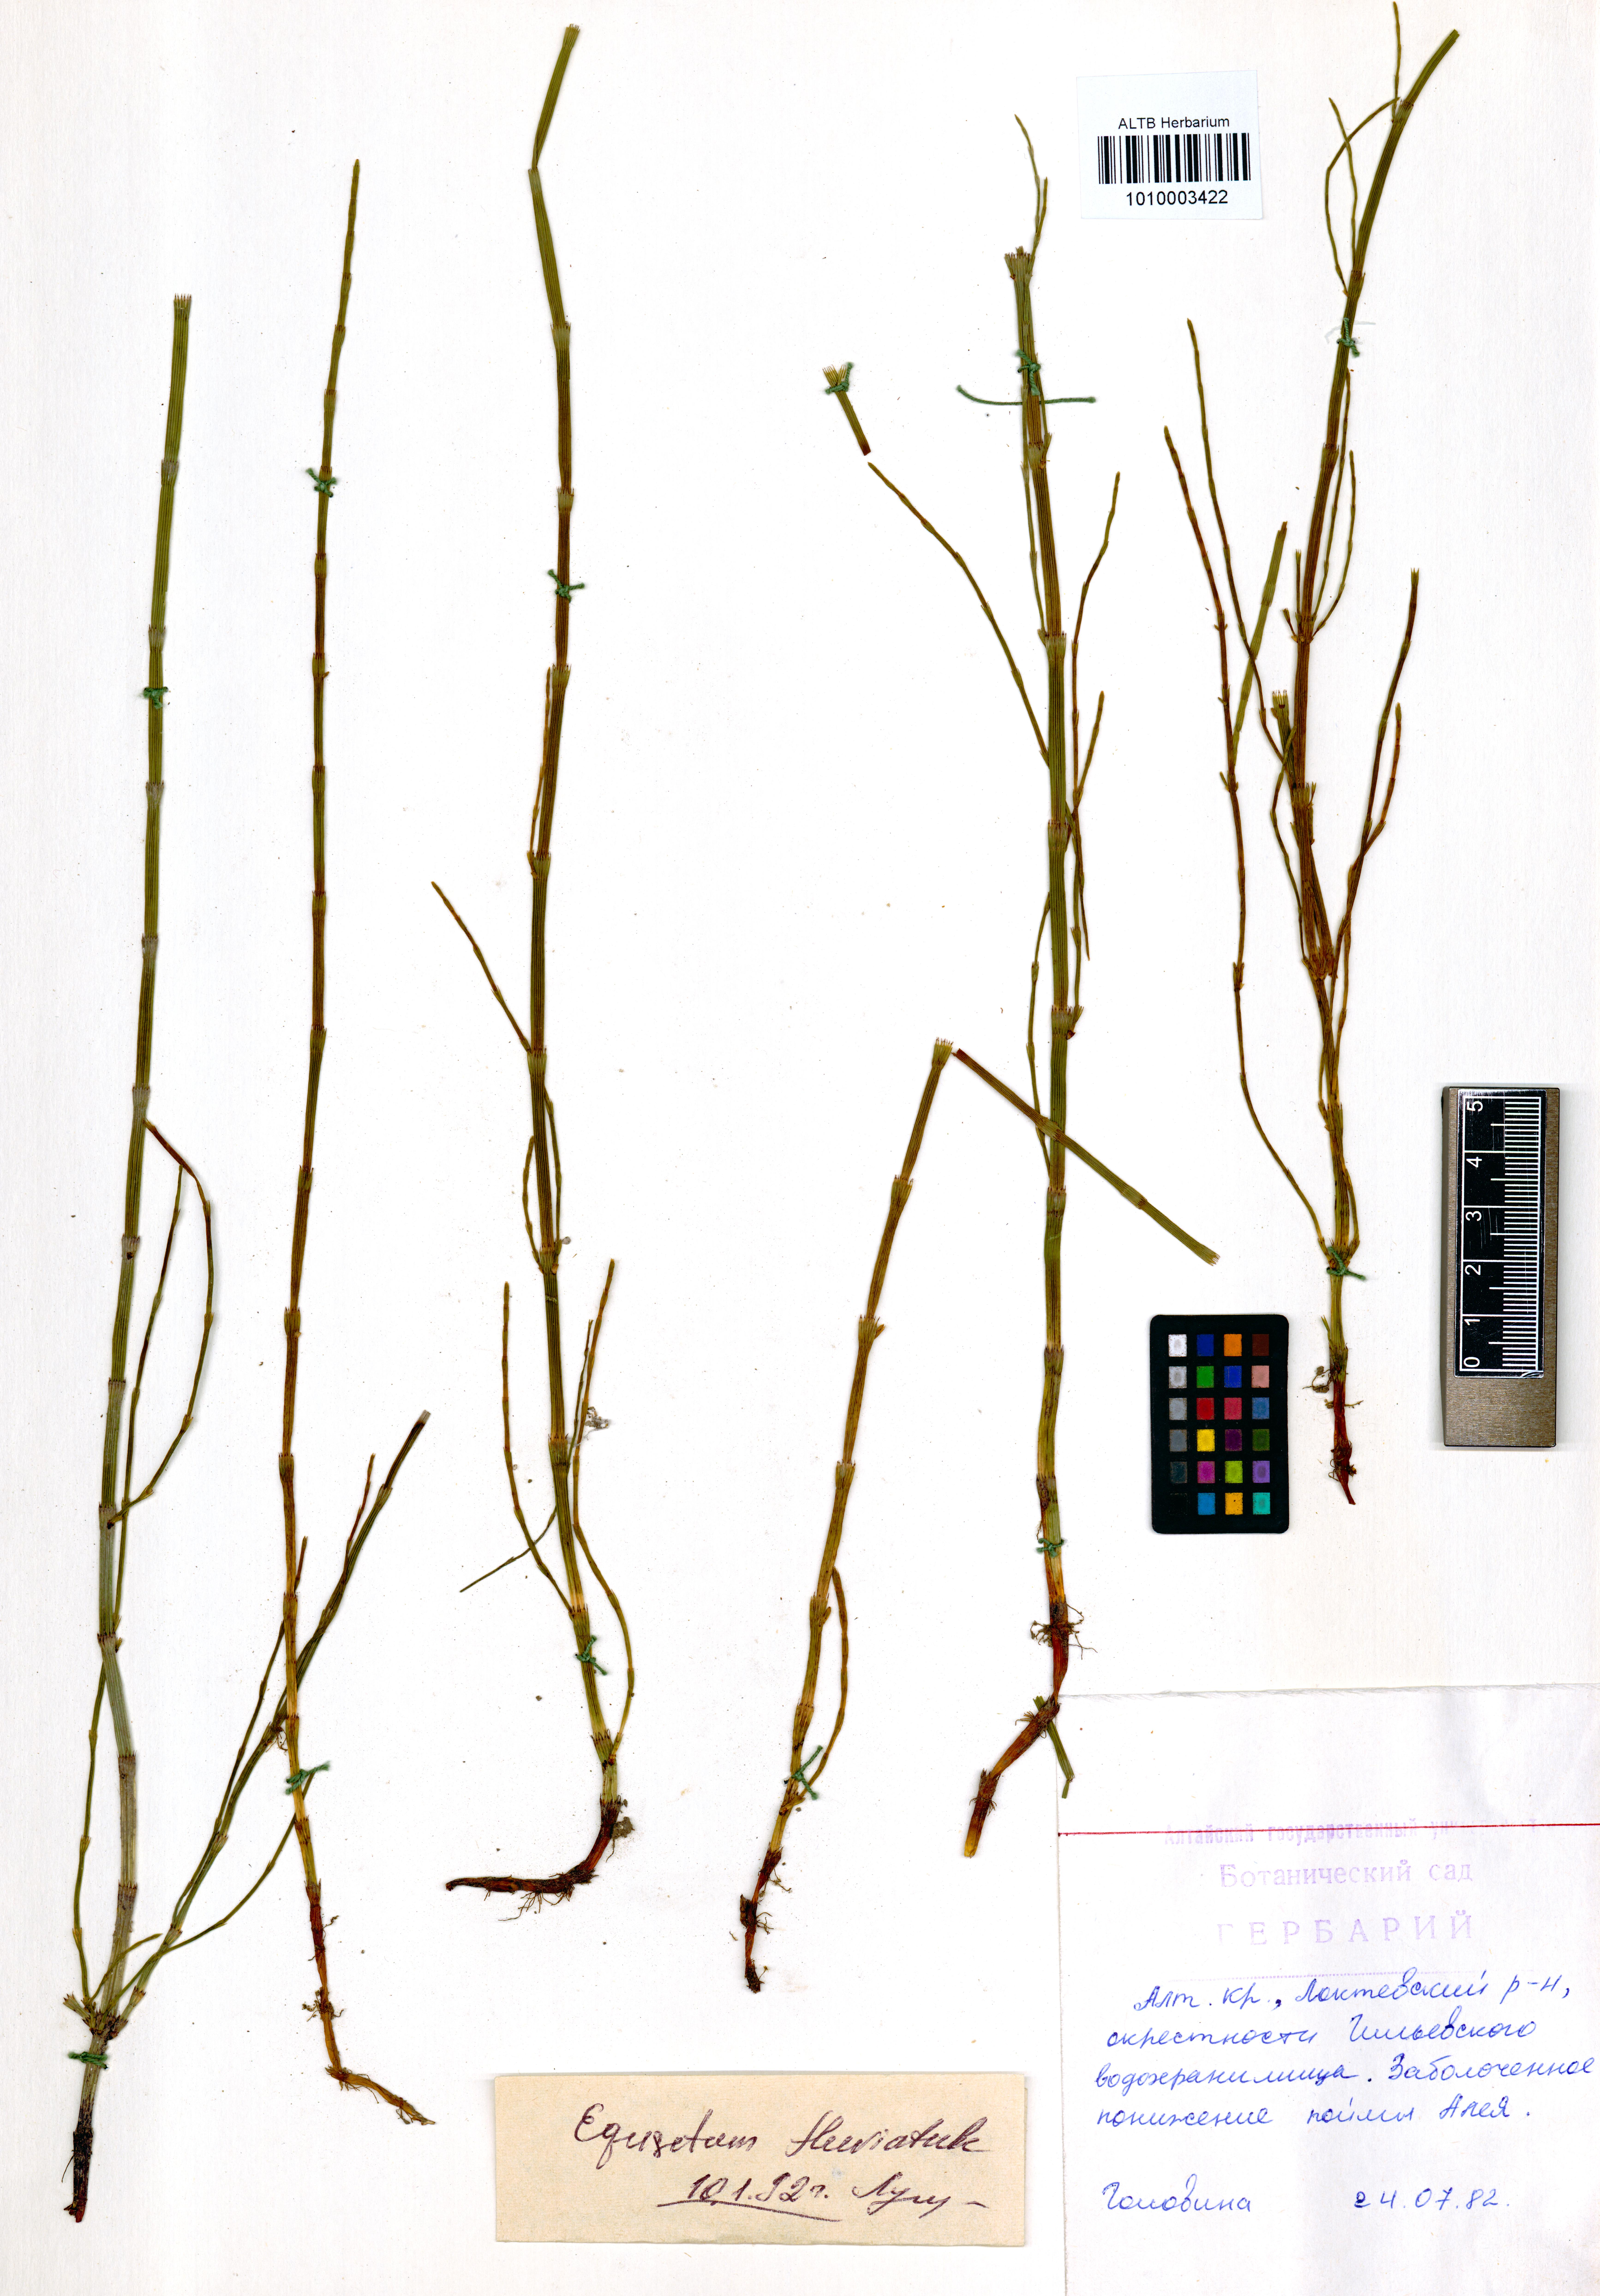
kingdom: Plantae
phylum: Tracheophyta
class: Polypodiopsida
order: Equisetales
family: Equisetaceae
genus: Equisetum
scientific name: Equisetum fluviatile
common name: Water horsetail
